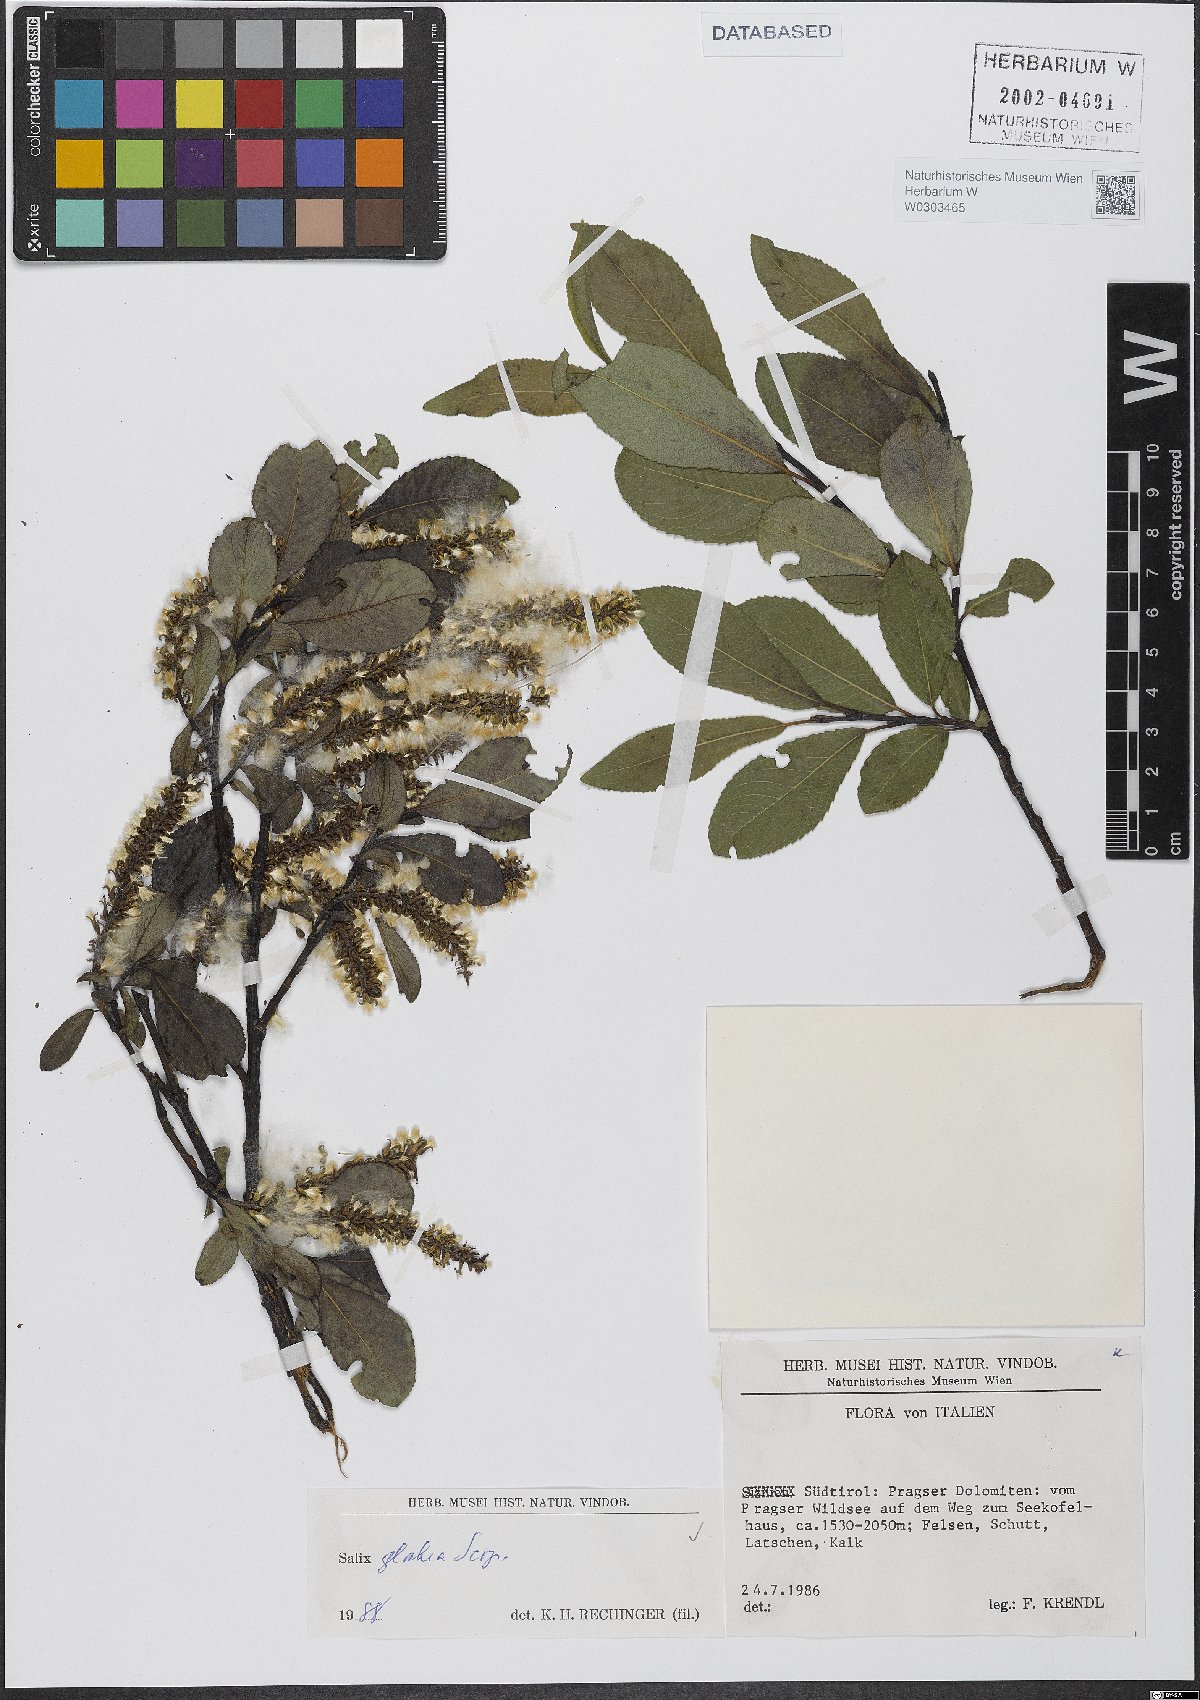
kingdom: Plantae
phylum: Tracheophyta
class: Magnoliopsida
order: Malpighiales
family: Salicaceae
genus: Salix
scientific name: Salix glabra
